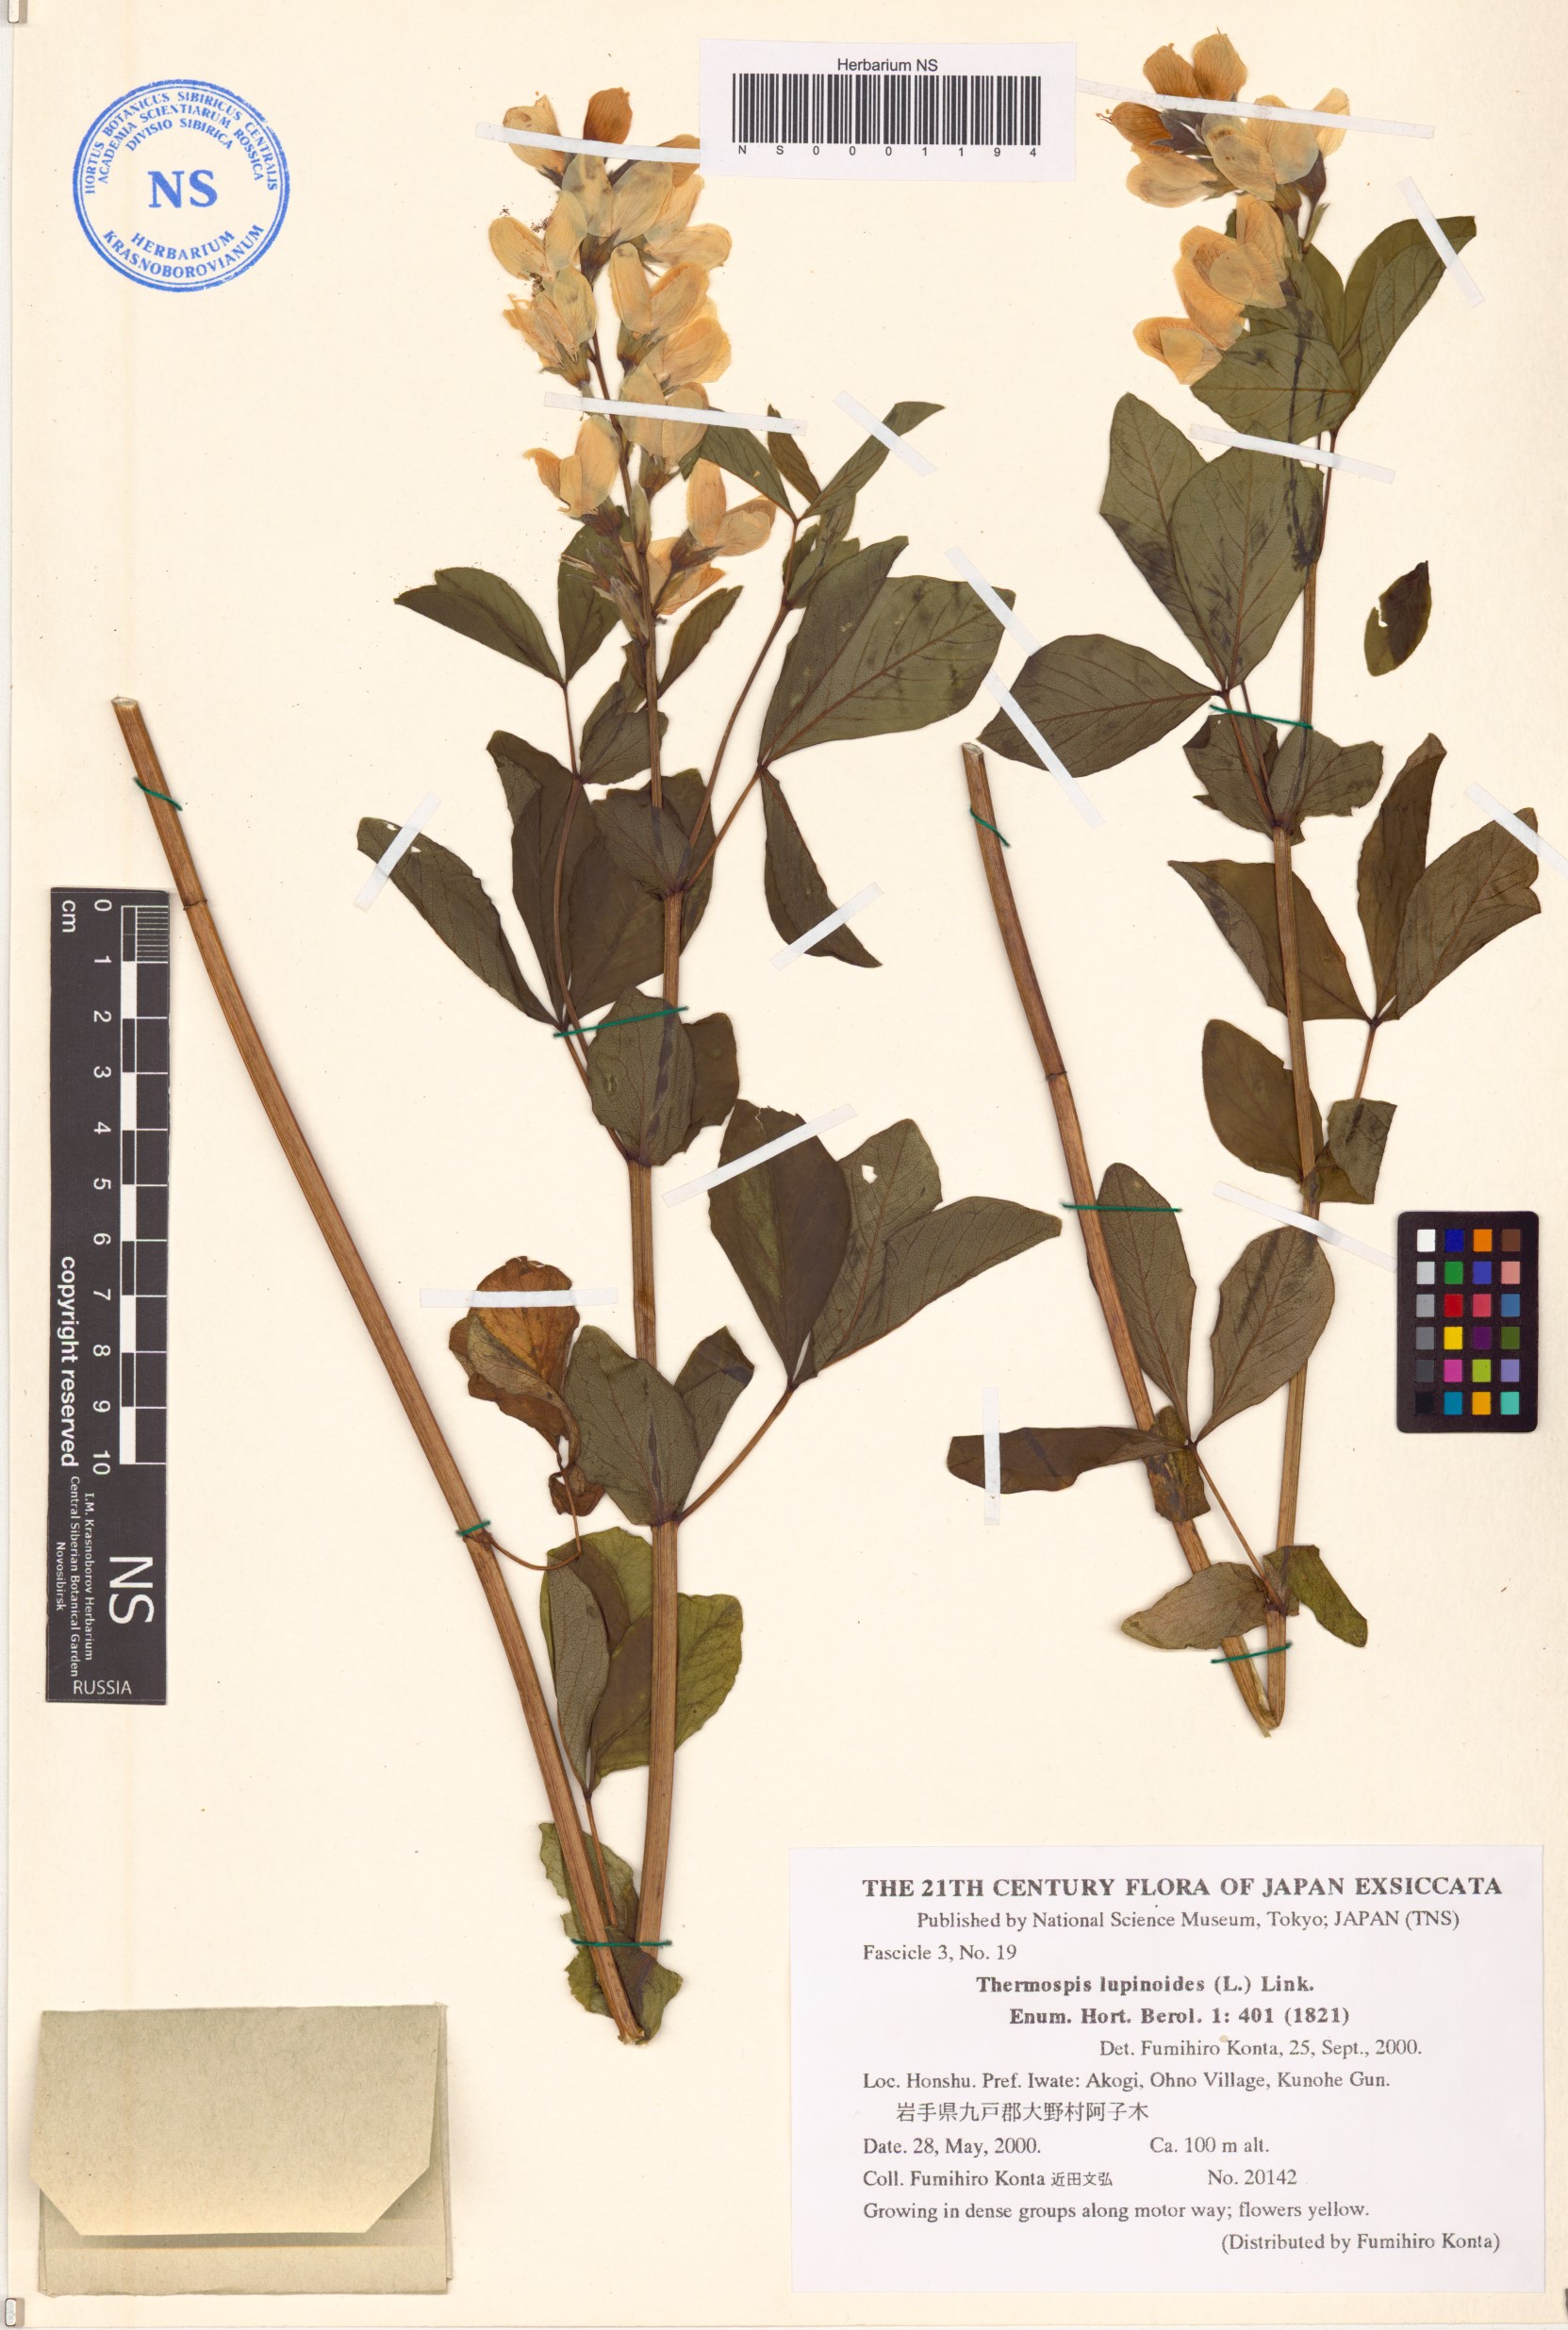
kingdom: Plantae
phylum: Tracheophyta
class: Magnoliopsida
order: Fabales
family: Fabaceae
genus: Thermopsis
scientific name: Thermopsis lanceolata
